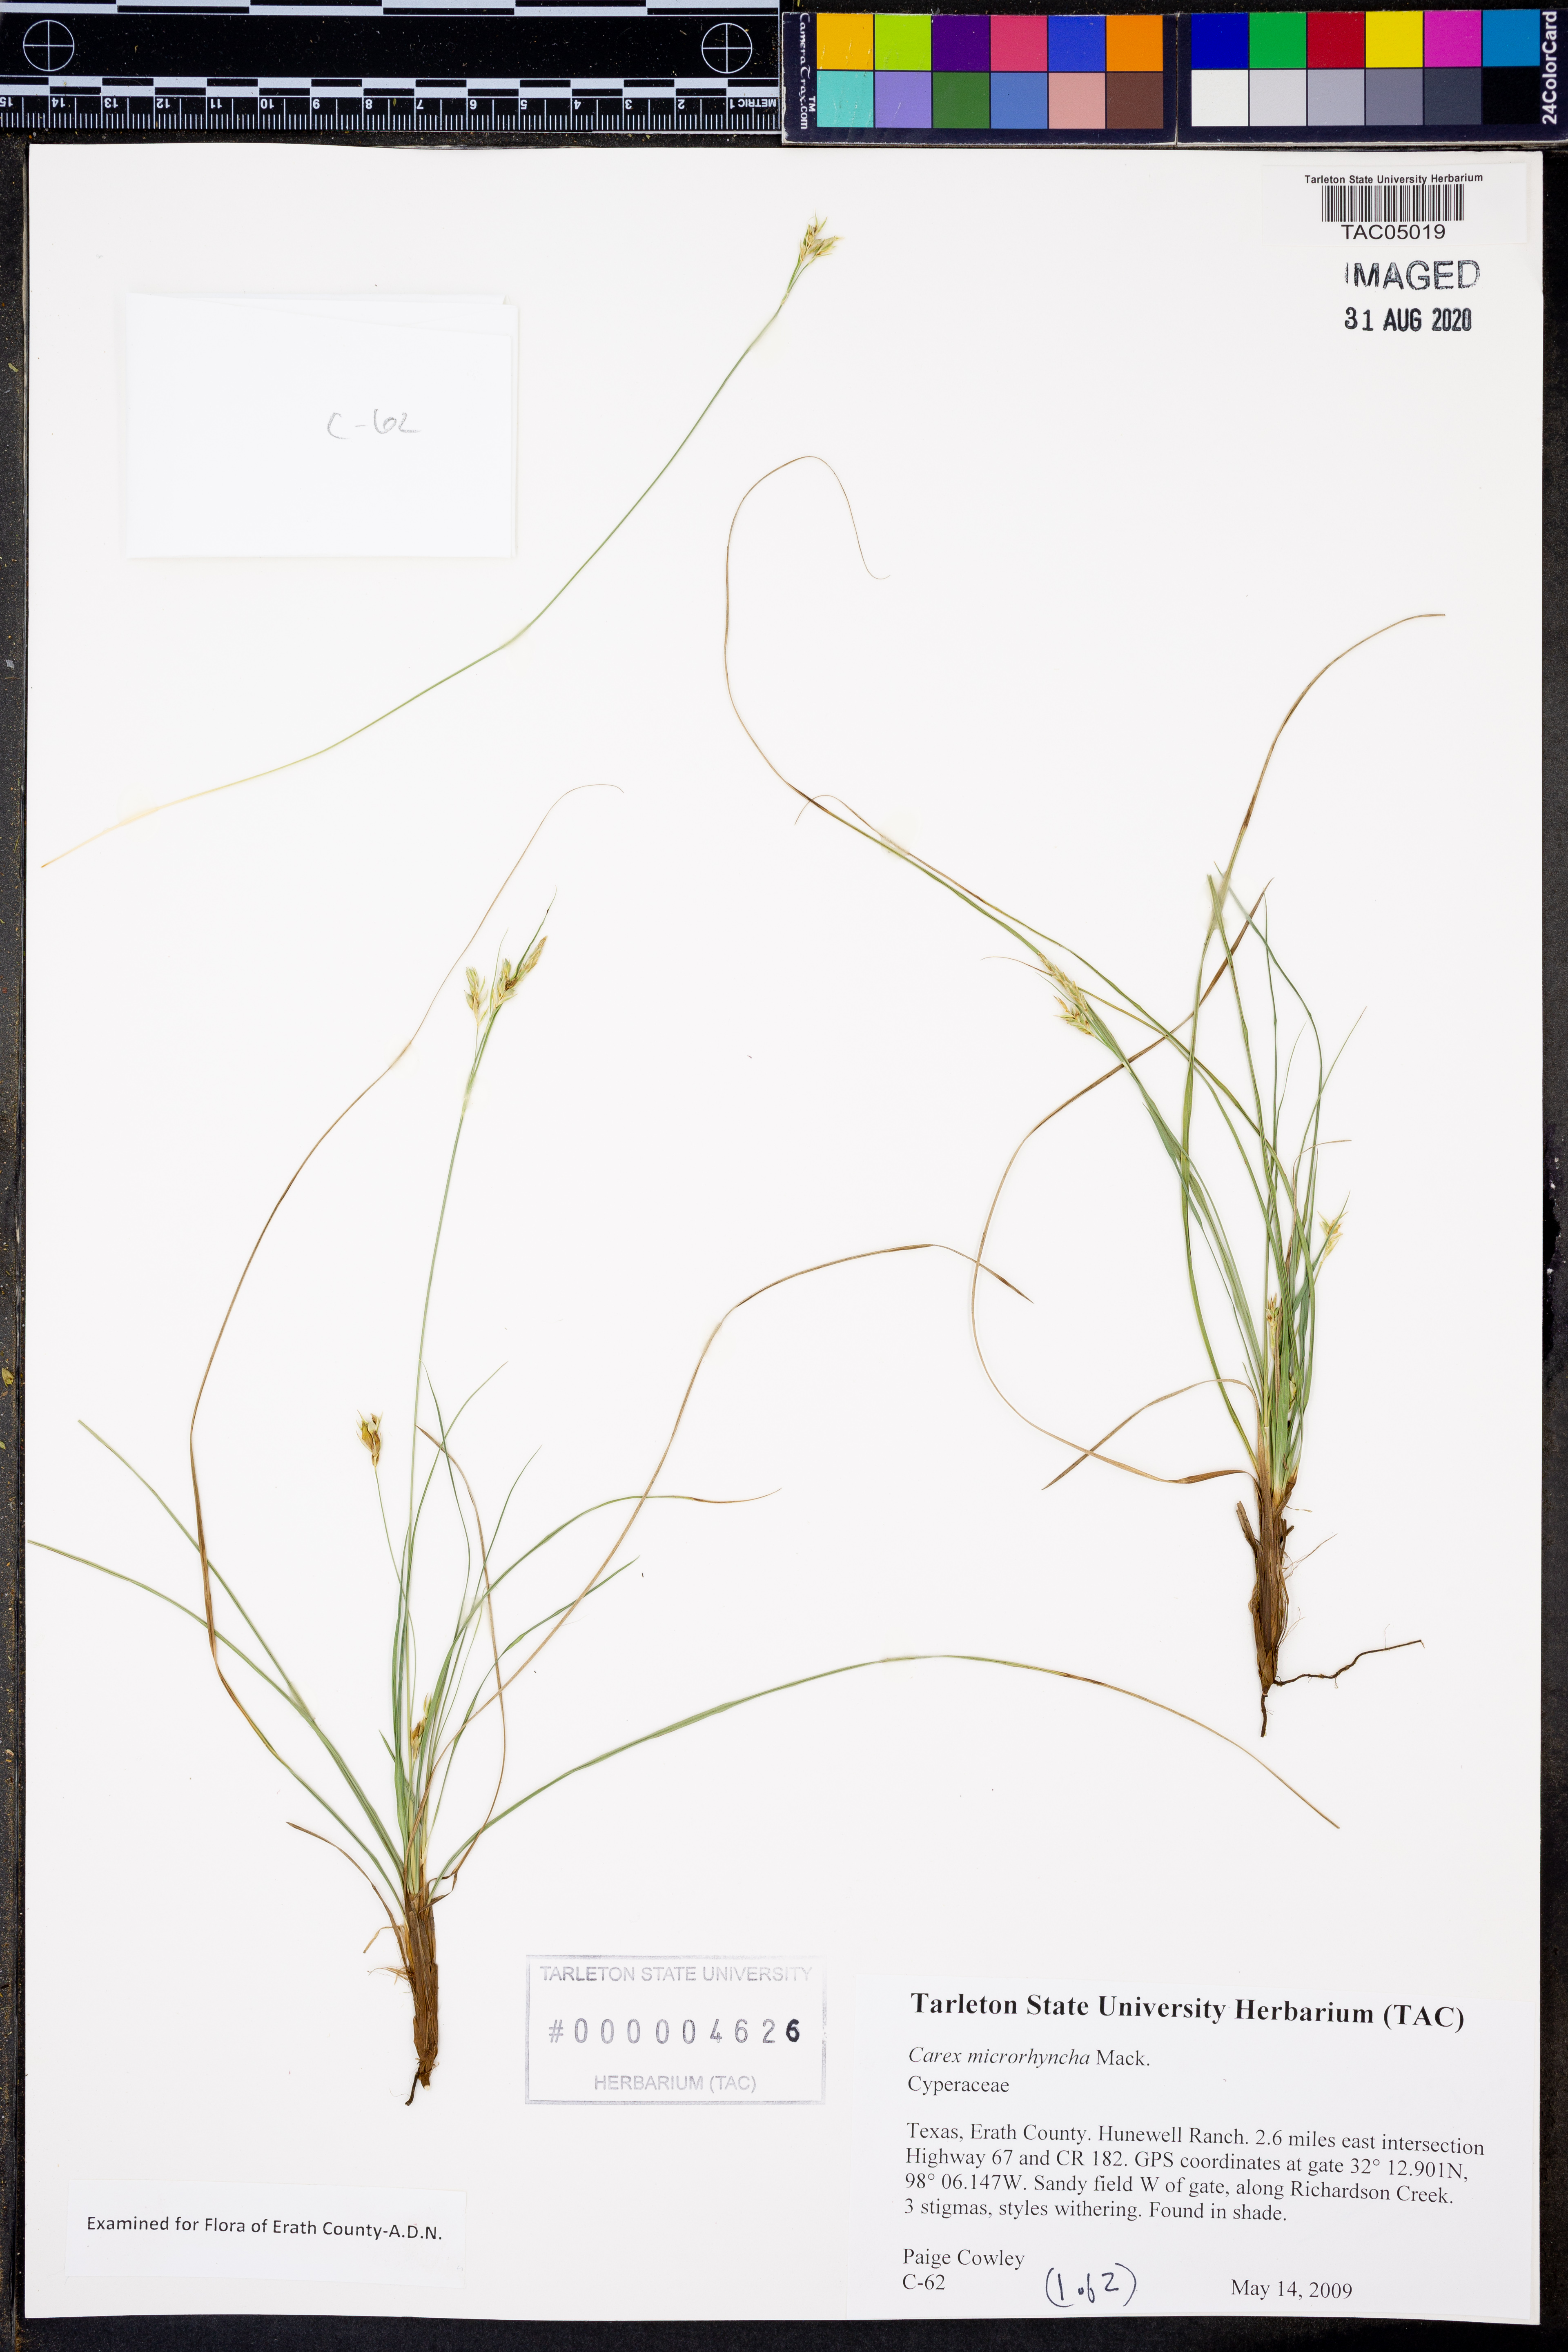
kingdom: Plantae
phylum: Tracheophyta
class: Liliopsida
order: Poales
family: Cyperaceae
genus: Carex
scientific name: Carex microrhyncha
